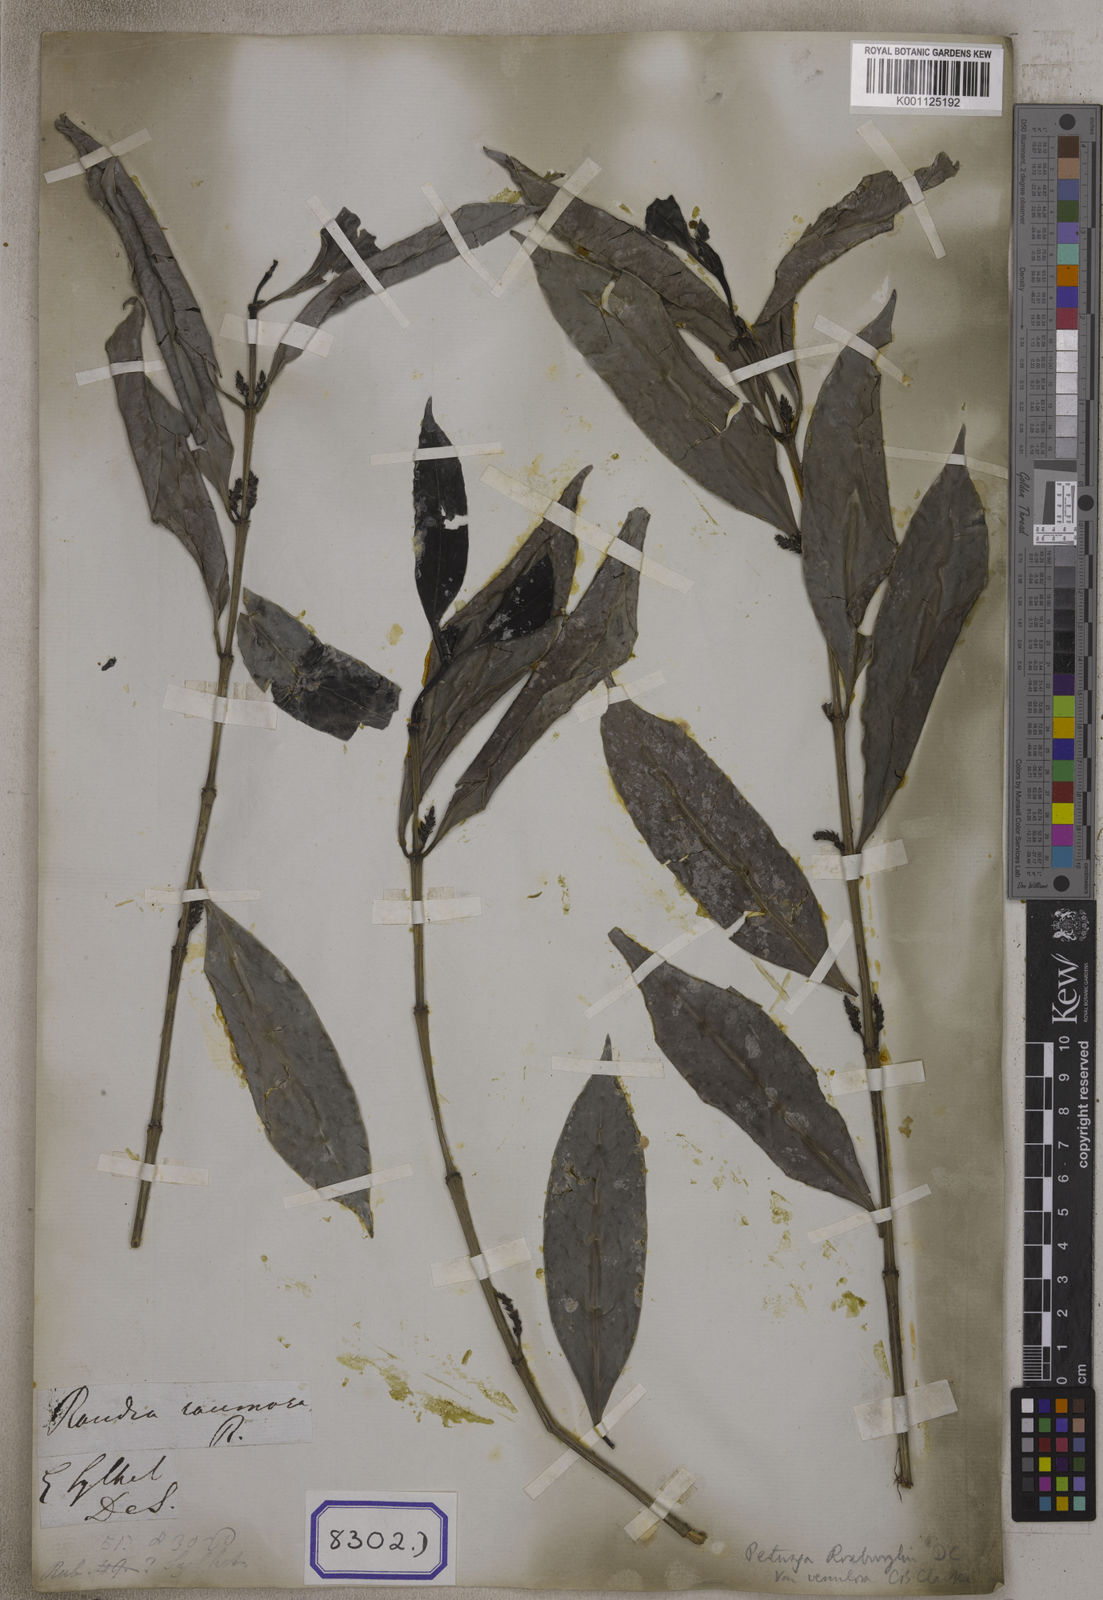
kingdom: Plantae
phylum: Tracheophyta
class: Magnoliopsida
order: Gentianales
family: Rubiaceae
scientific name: Rubiaceae
